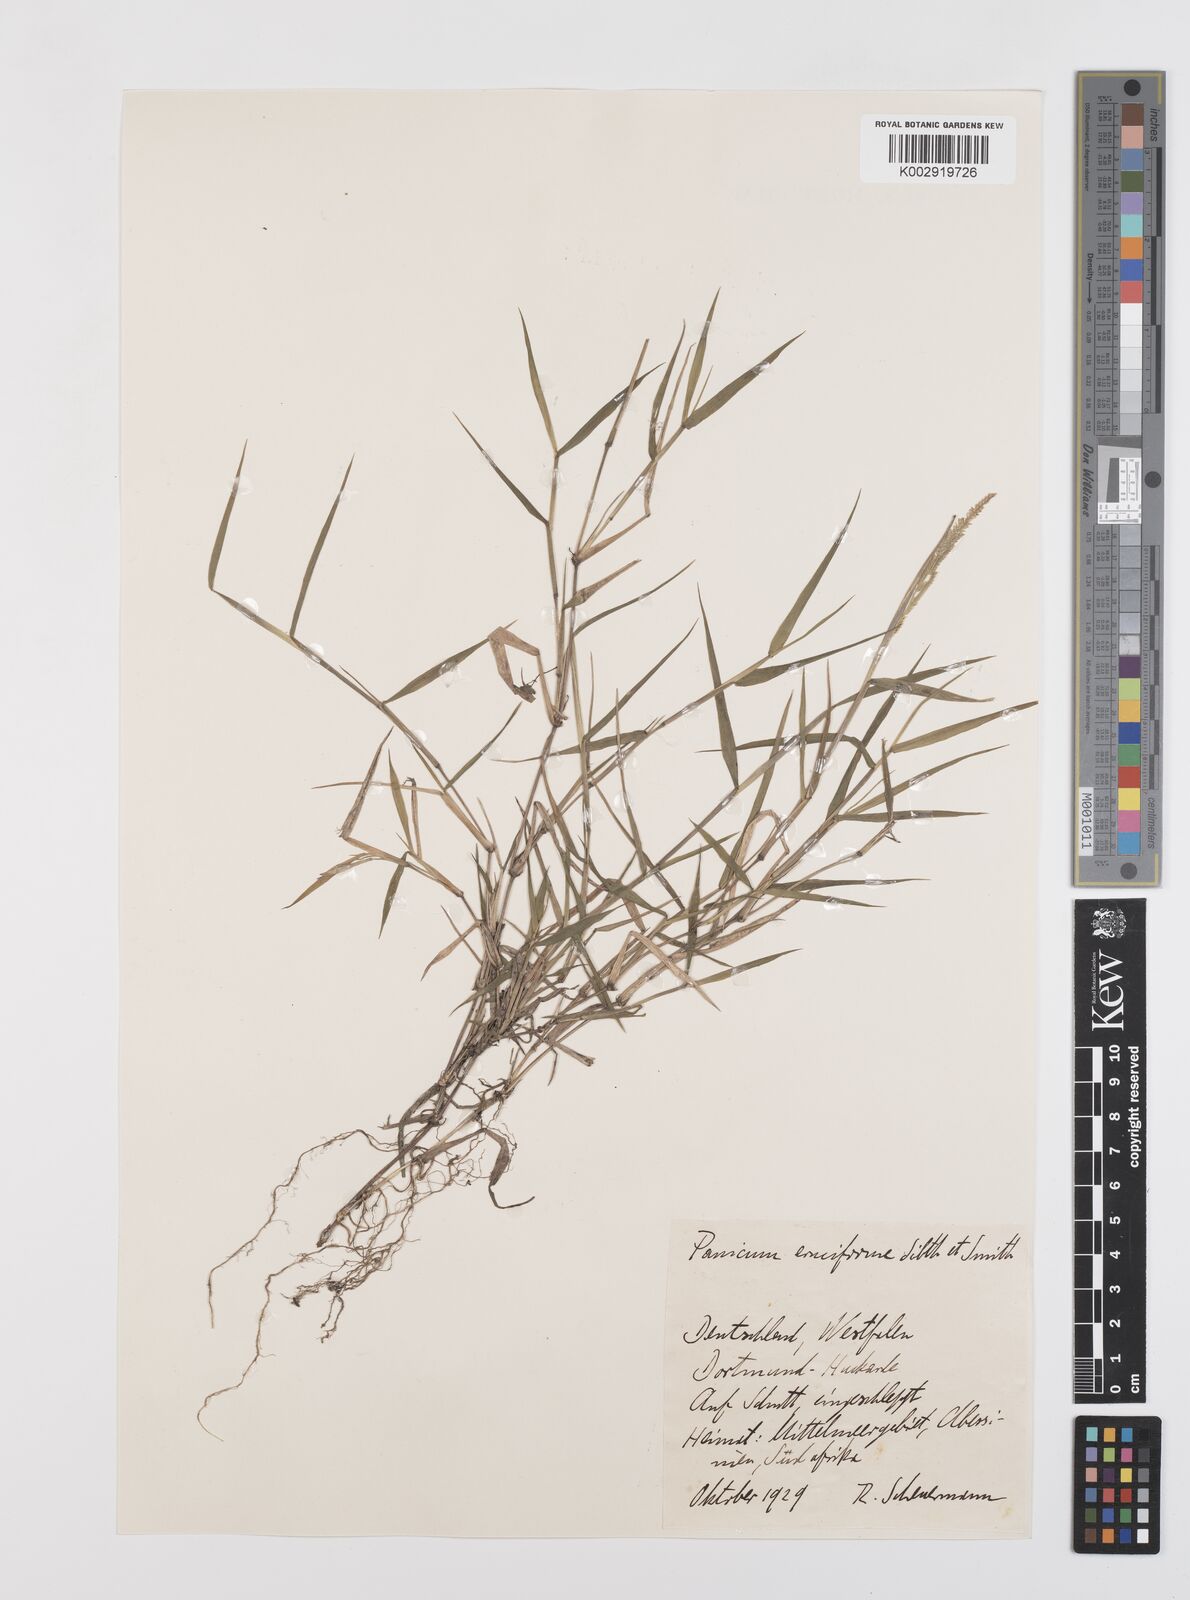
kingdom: Plantae
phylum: Tracheophyta
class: Liliopsida
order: Poales
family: Poaceae
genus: Moorochloa
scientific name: Moorochloa eruciformis
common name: Sweet signalgrass
